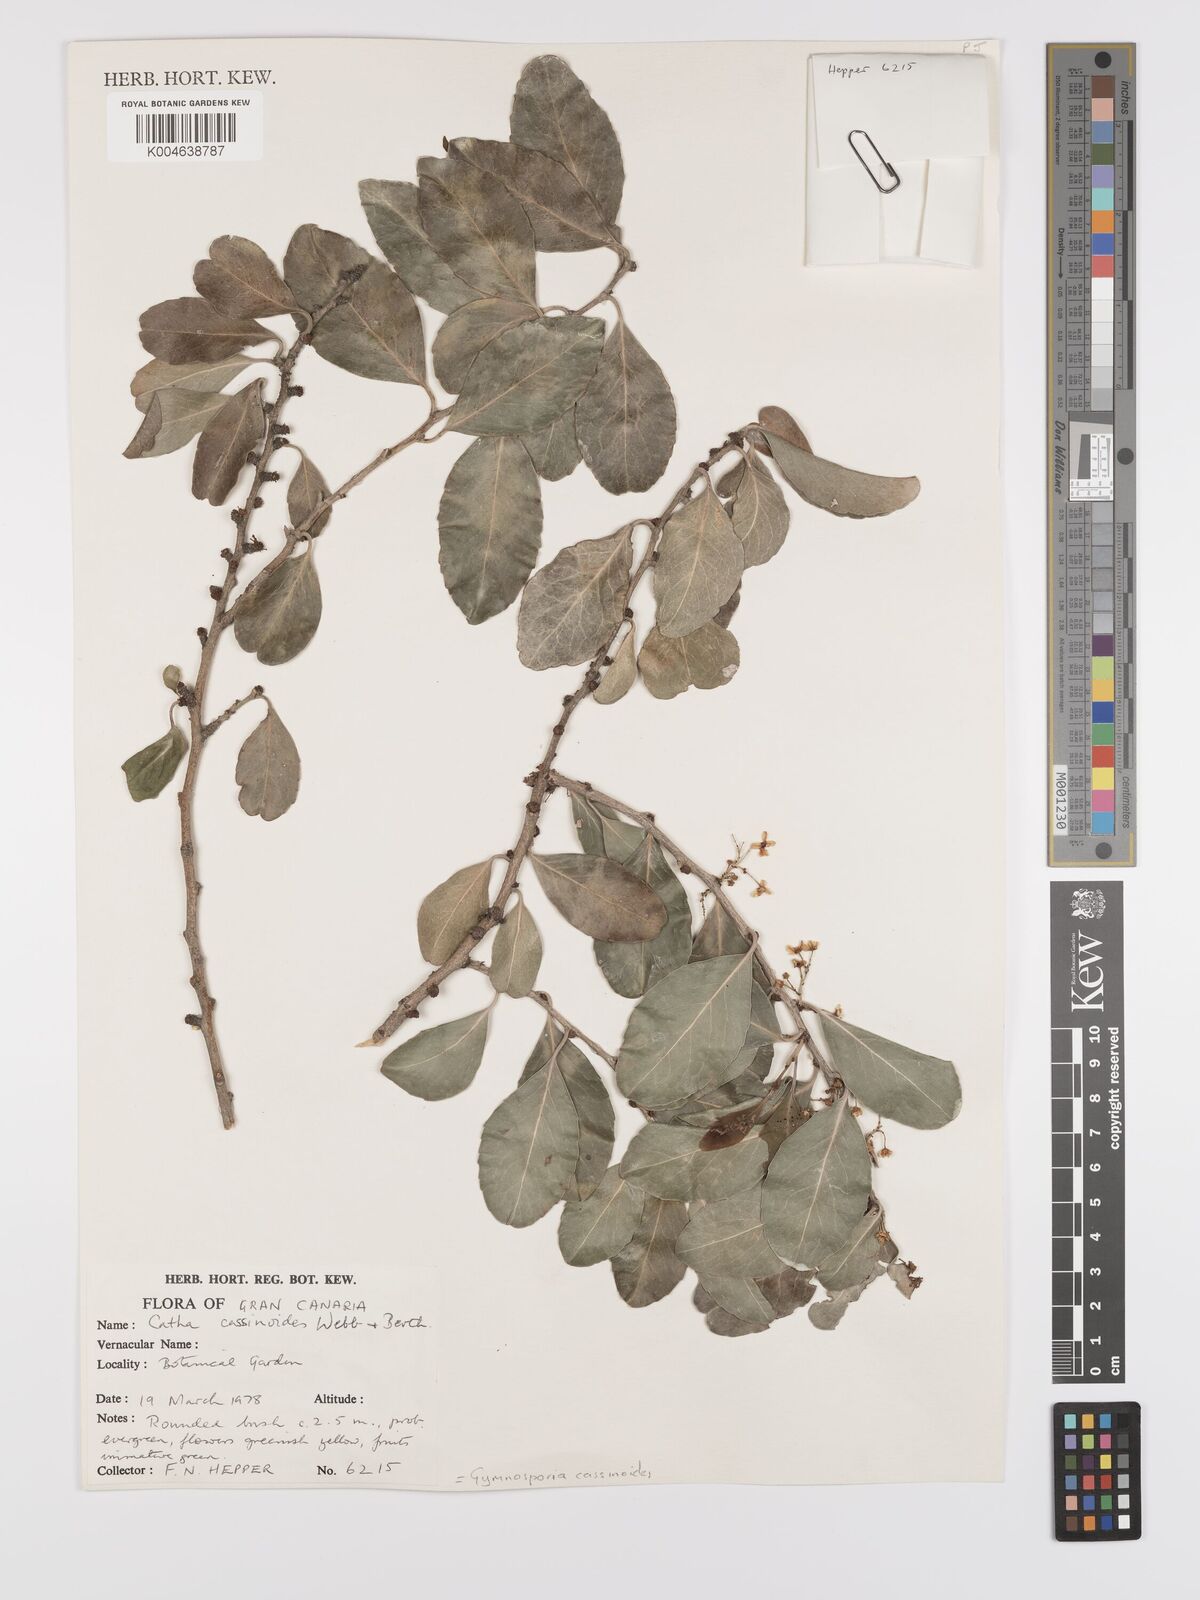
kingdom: Plantae
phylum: Tracheophyta
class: Magnoliopsida
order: Celastrales
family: Celastraceae
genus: Gymnosporia
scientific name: Gymnosporia cassinoides
